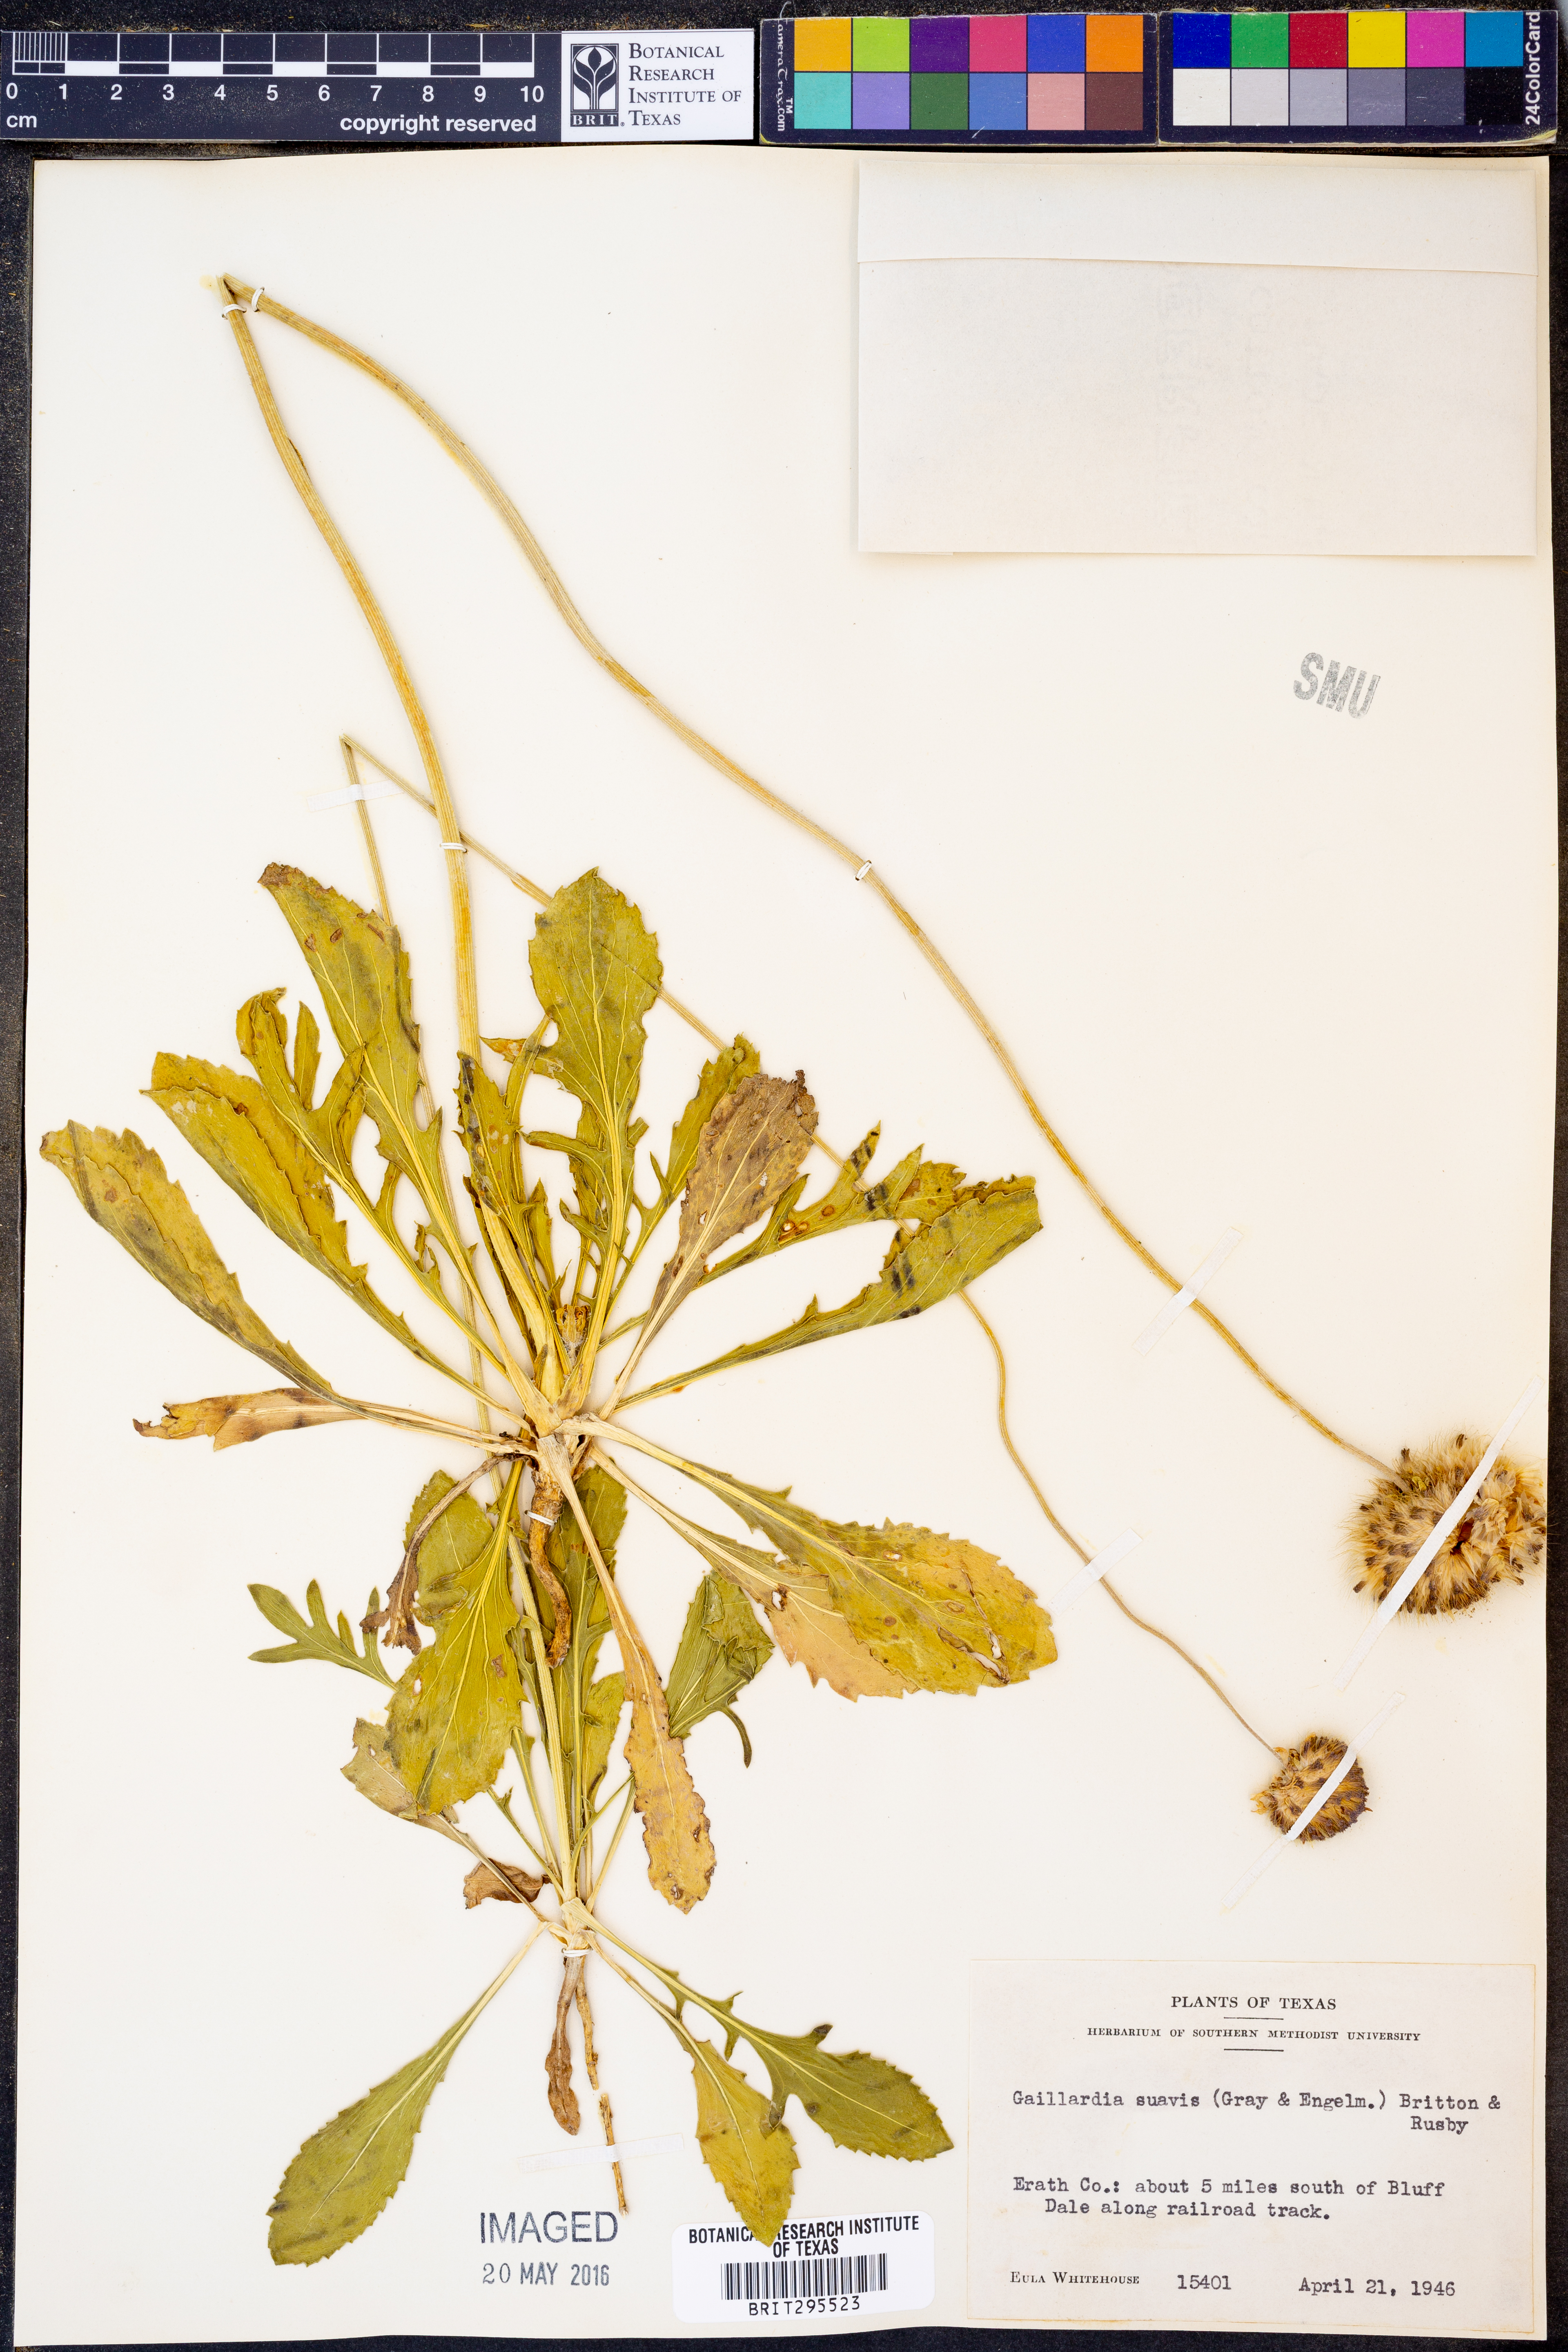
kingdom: Plantae
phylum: Tracheophyta
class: Magnoliopsida
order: Asterales
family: Asteraceae
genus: Gaillardia
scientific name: Gaillardia suavis
